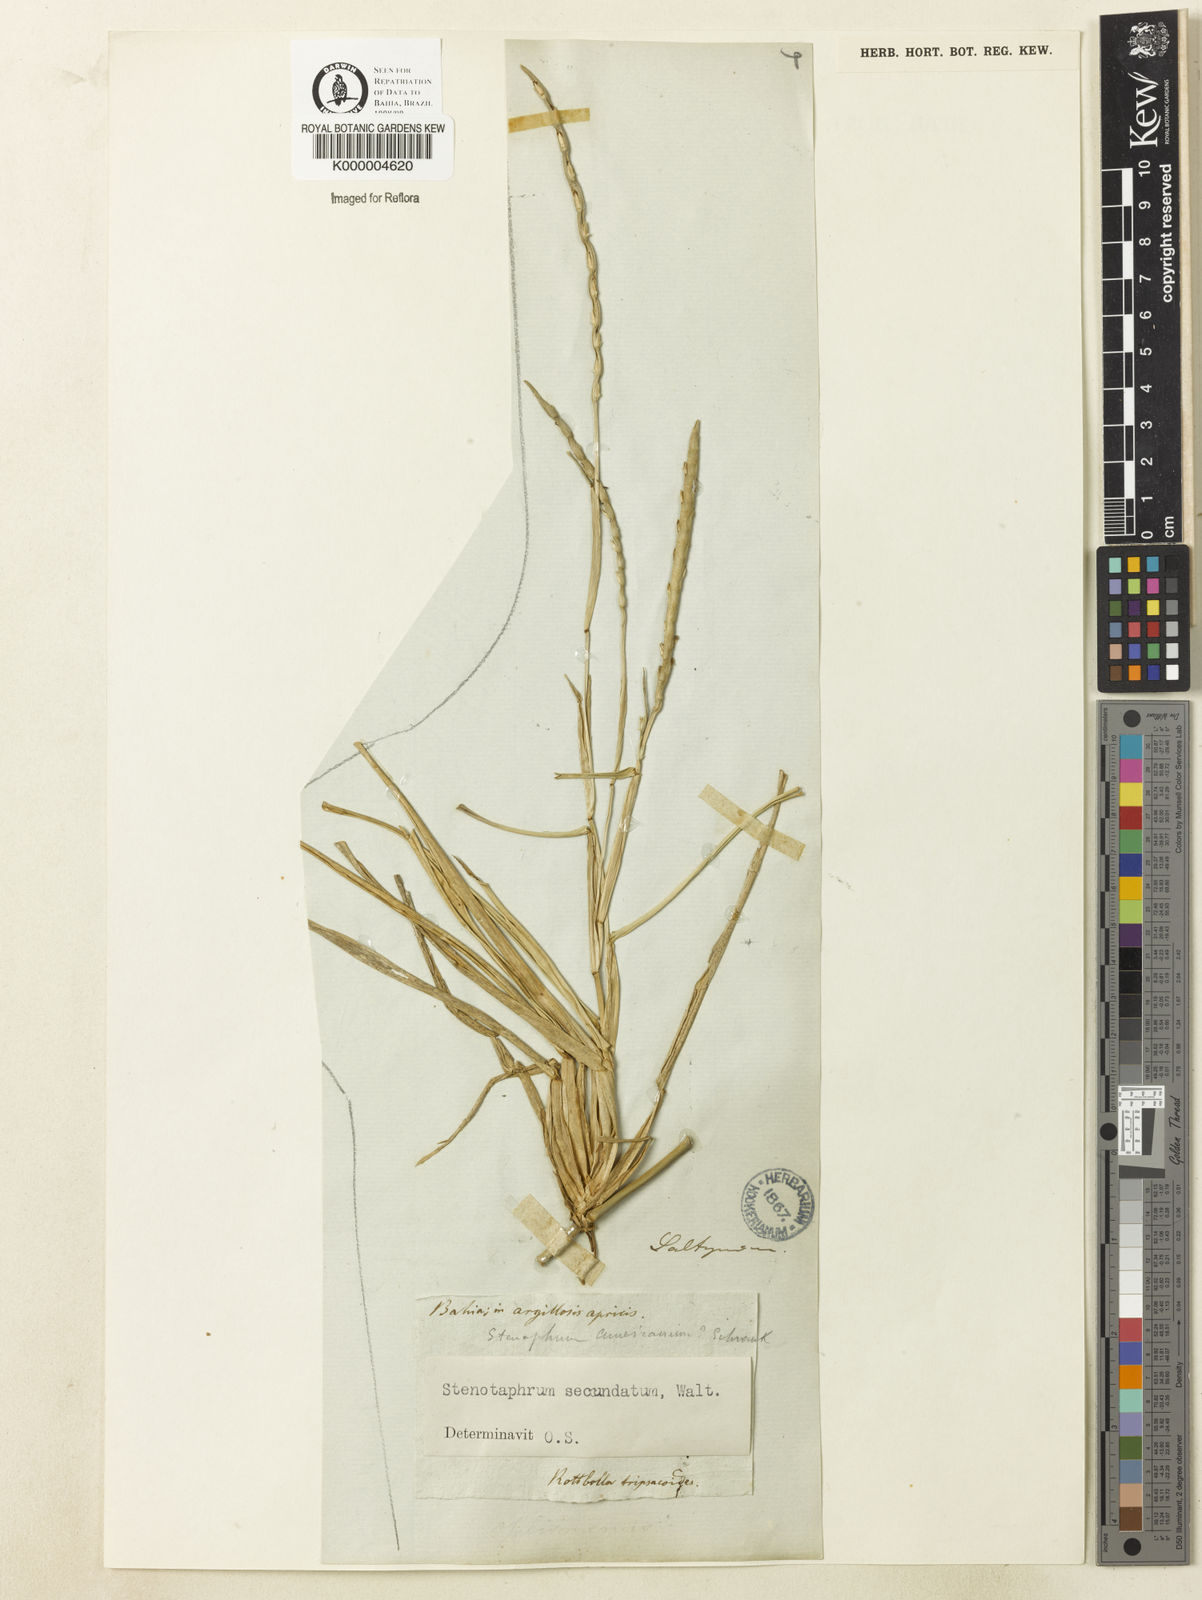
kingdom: Plantae
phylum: Tracheophyta
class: Liliopsida
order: Poales
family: Poaceae
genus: Stenotaphrum
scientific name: Stenotaphrum secundatum
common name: St. augustine grass
